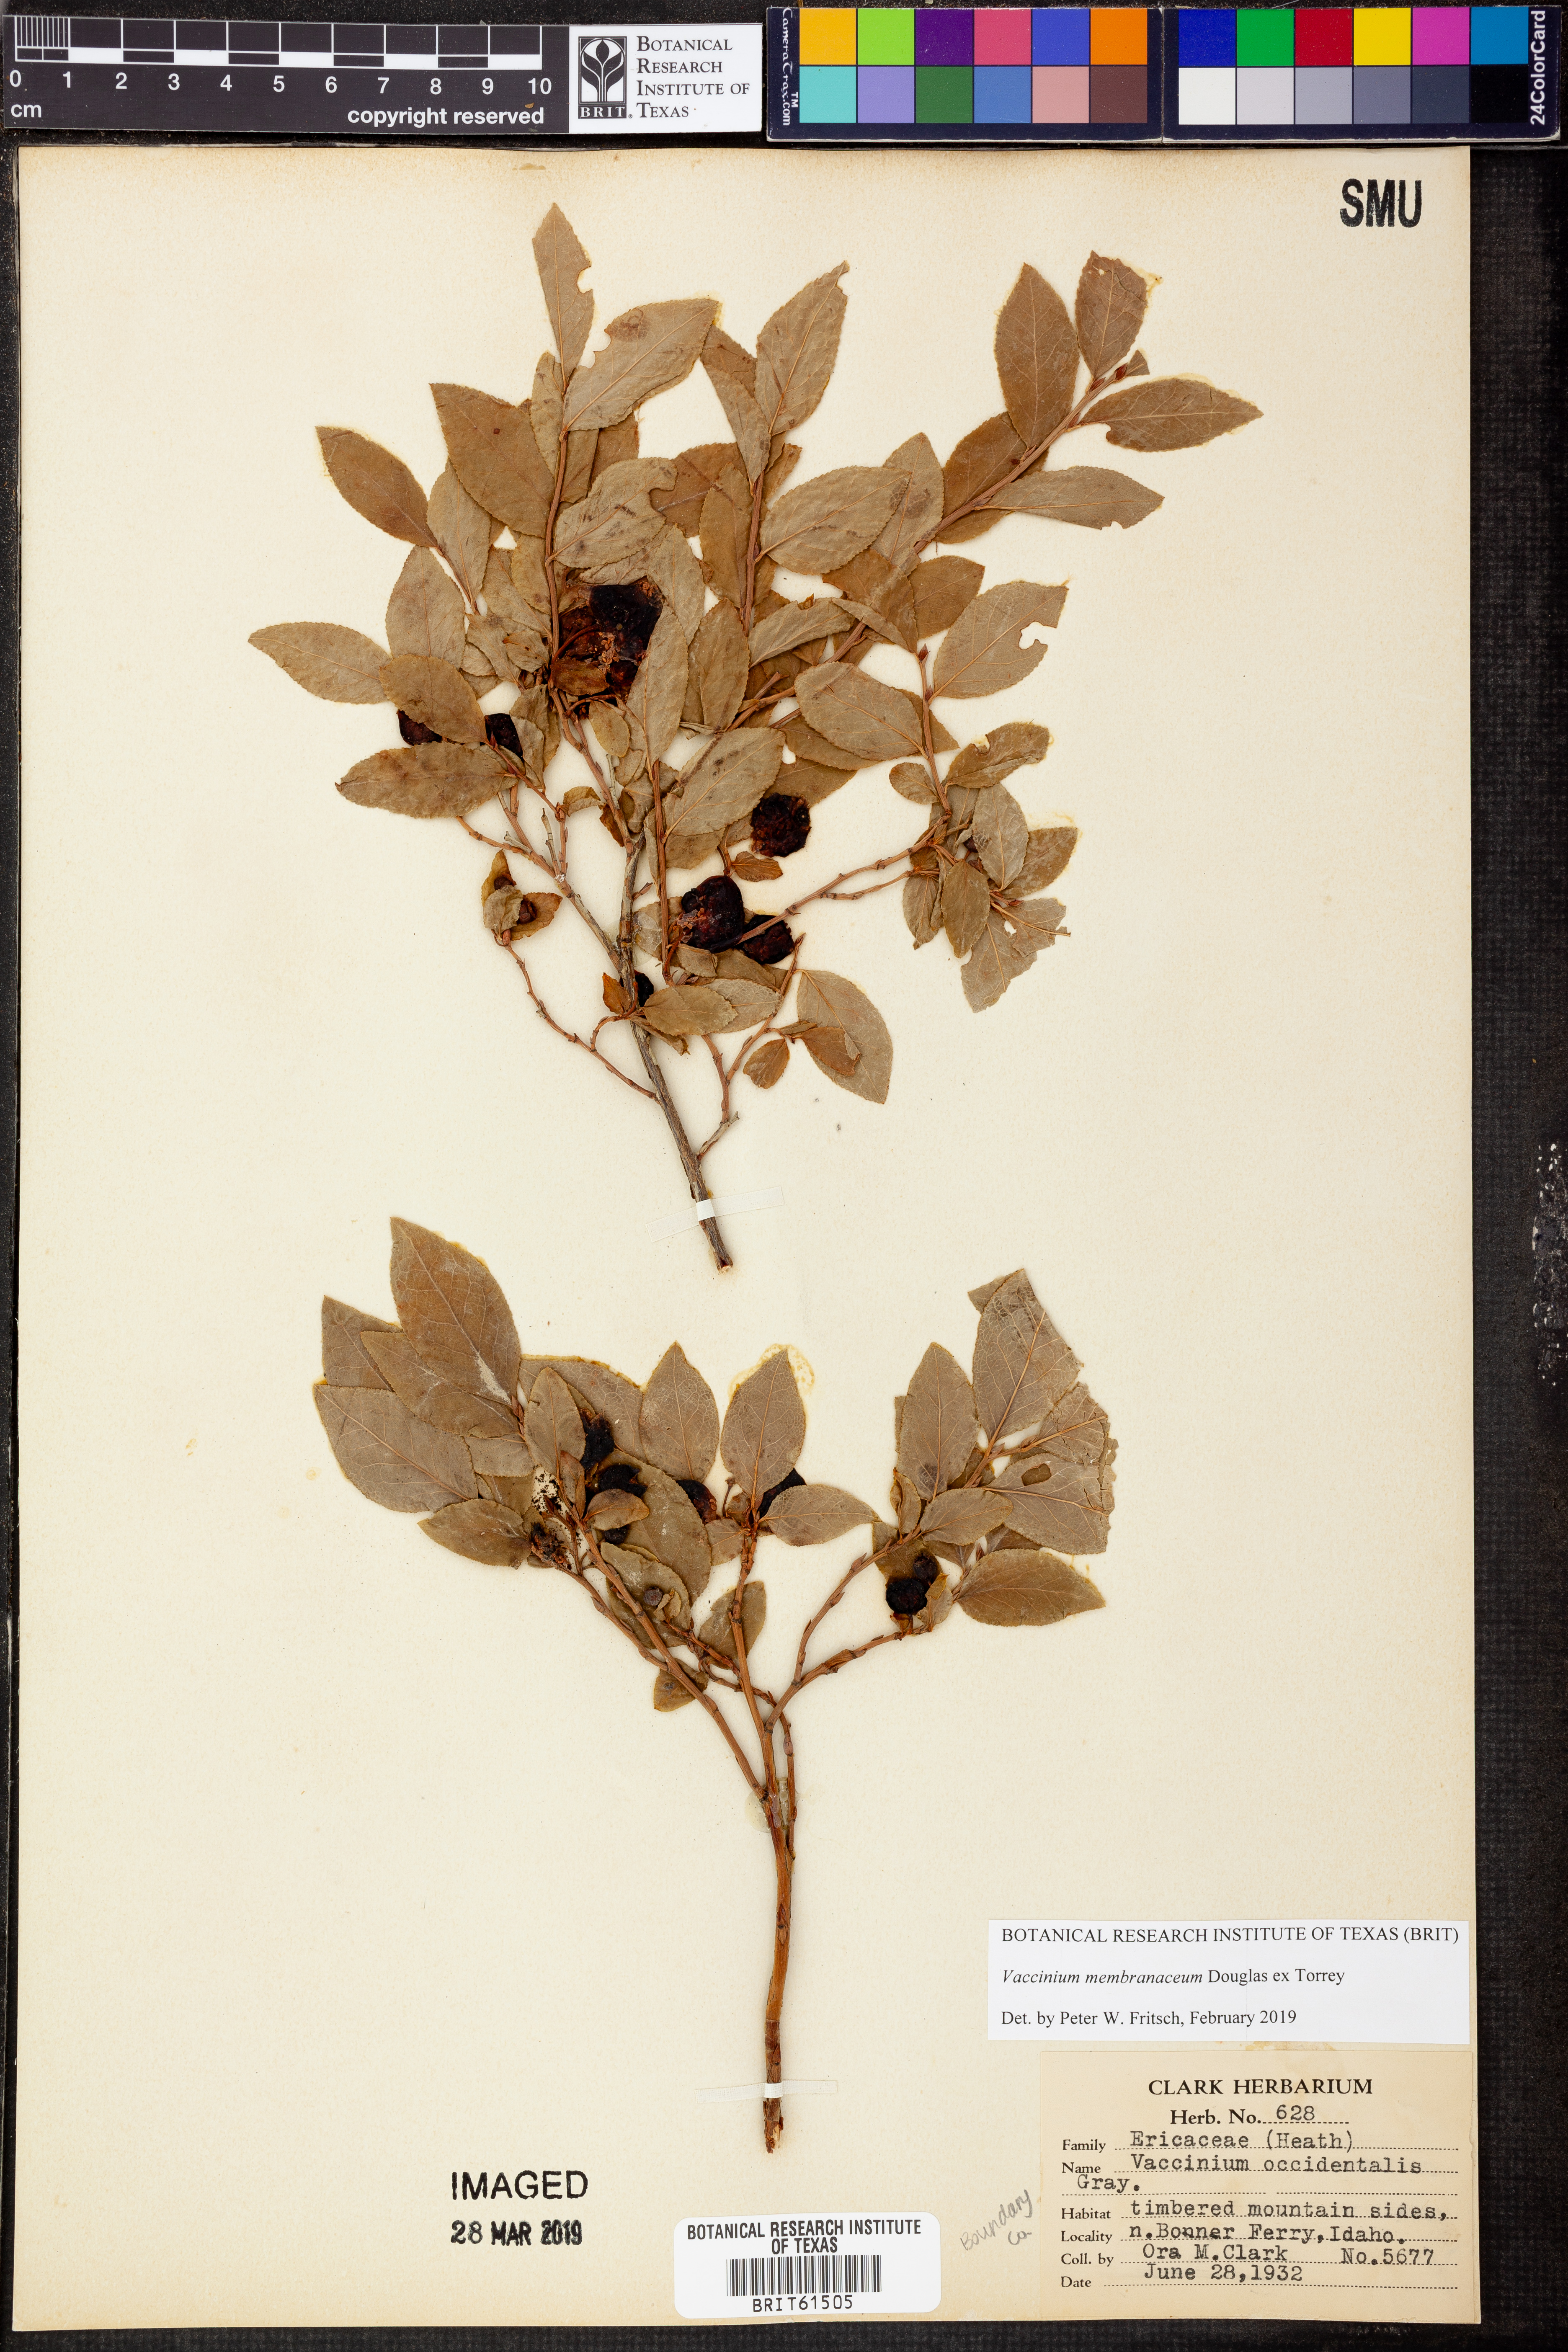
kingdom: Plantae
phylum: Tracheophyta
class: Magnoliopsida
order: Ericales
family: Ericaceae
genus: Vaccinium
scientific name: Vaccinium membranaceum
